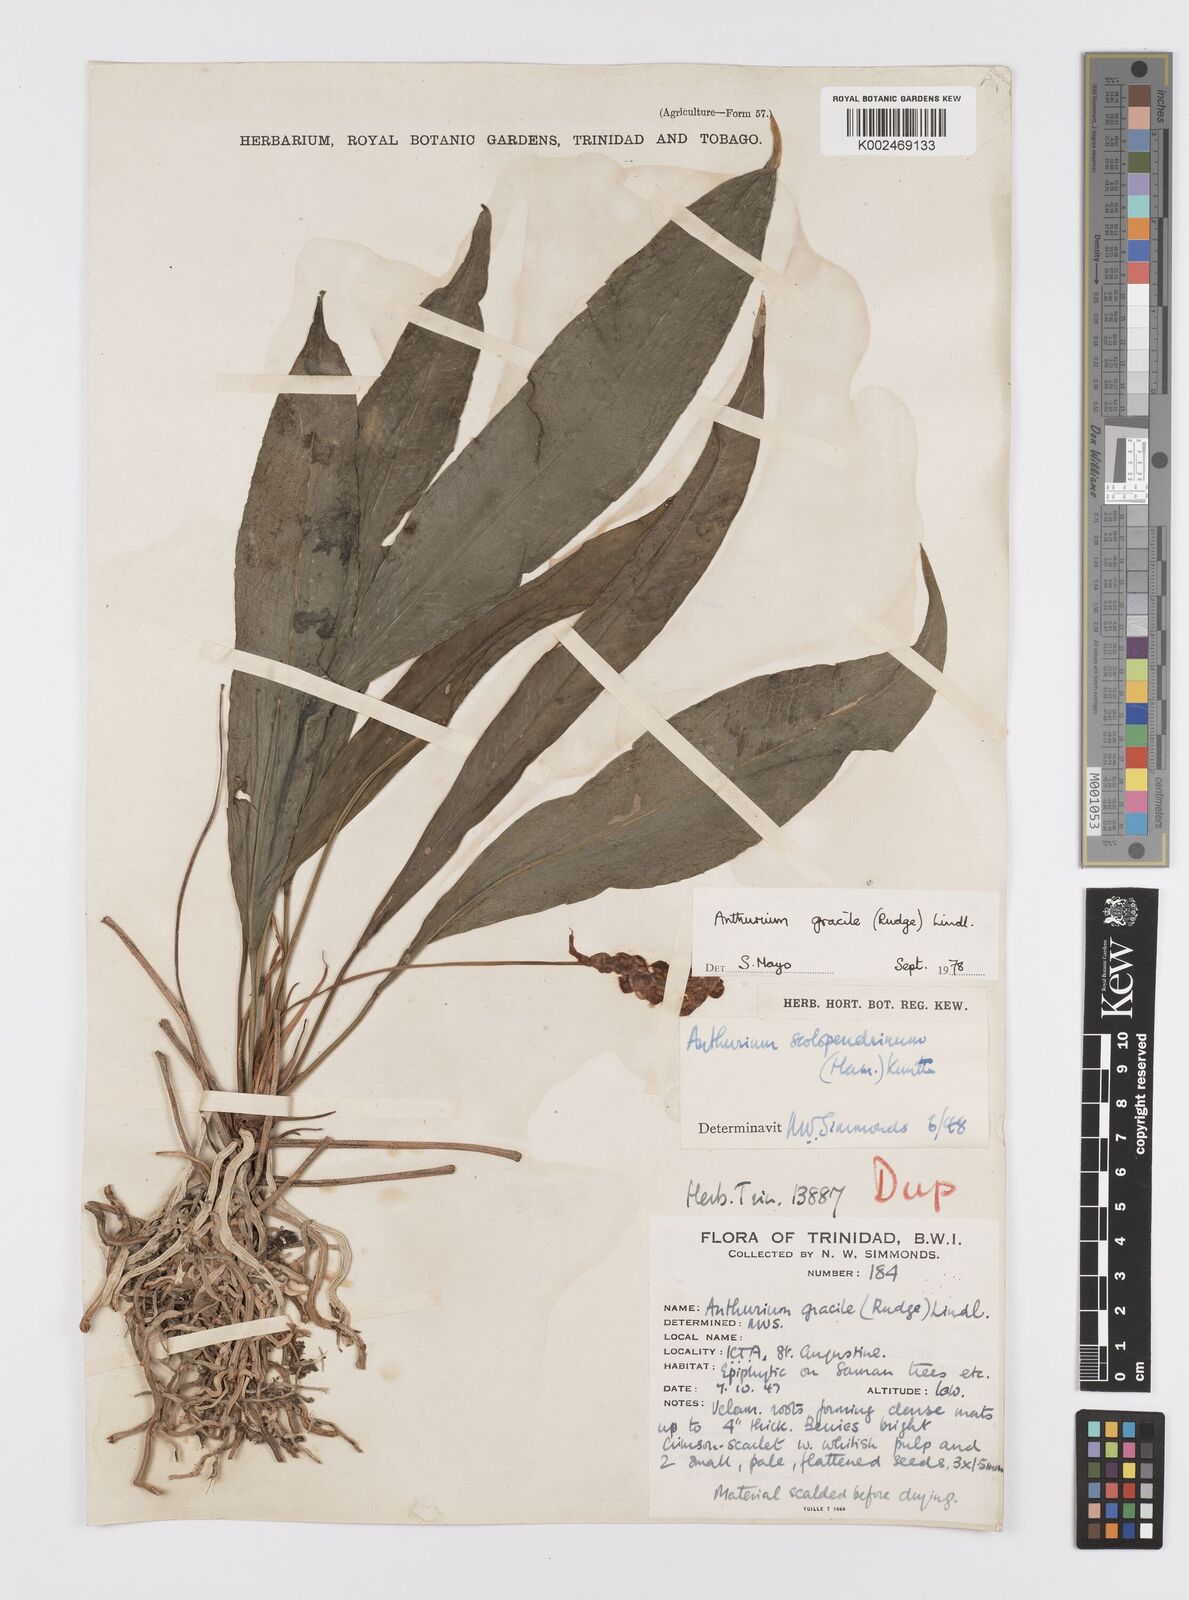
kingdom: Plantae
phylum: Tracheophyta
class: Liliopsida
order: Alismatales
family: Araceae
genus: Anthurium
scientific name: Anthurium gracile
